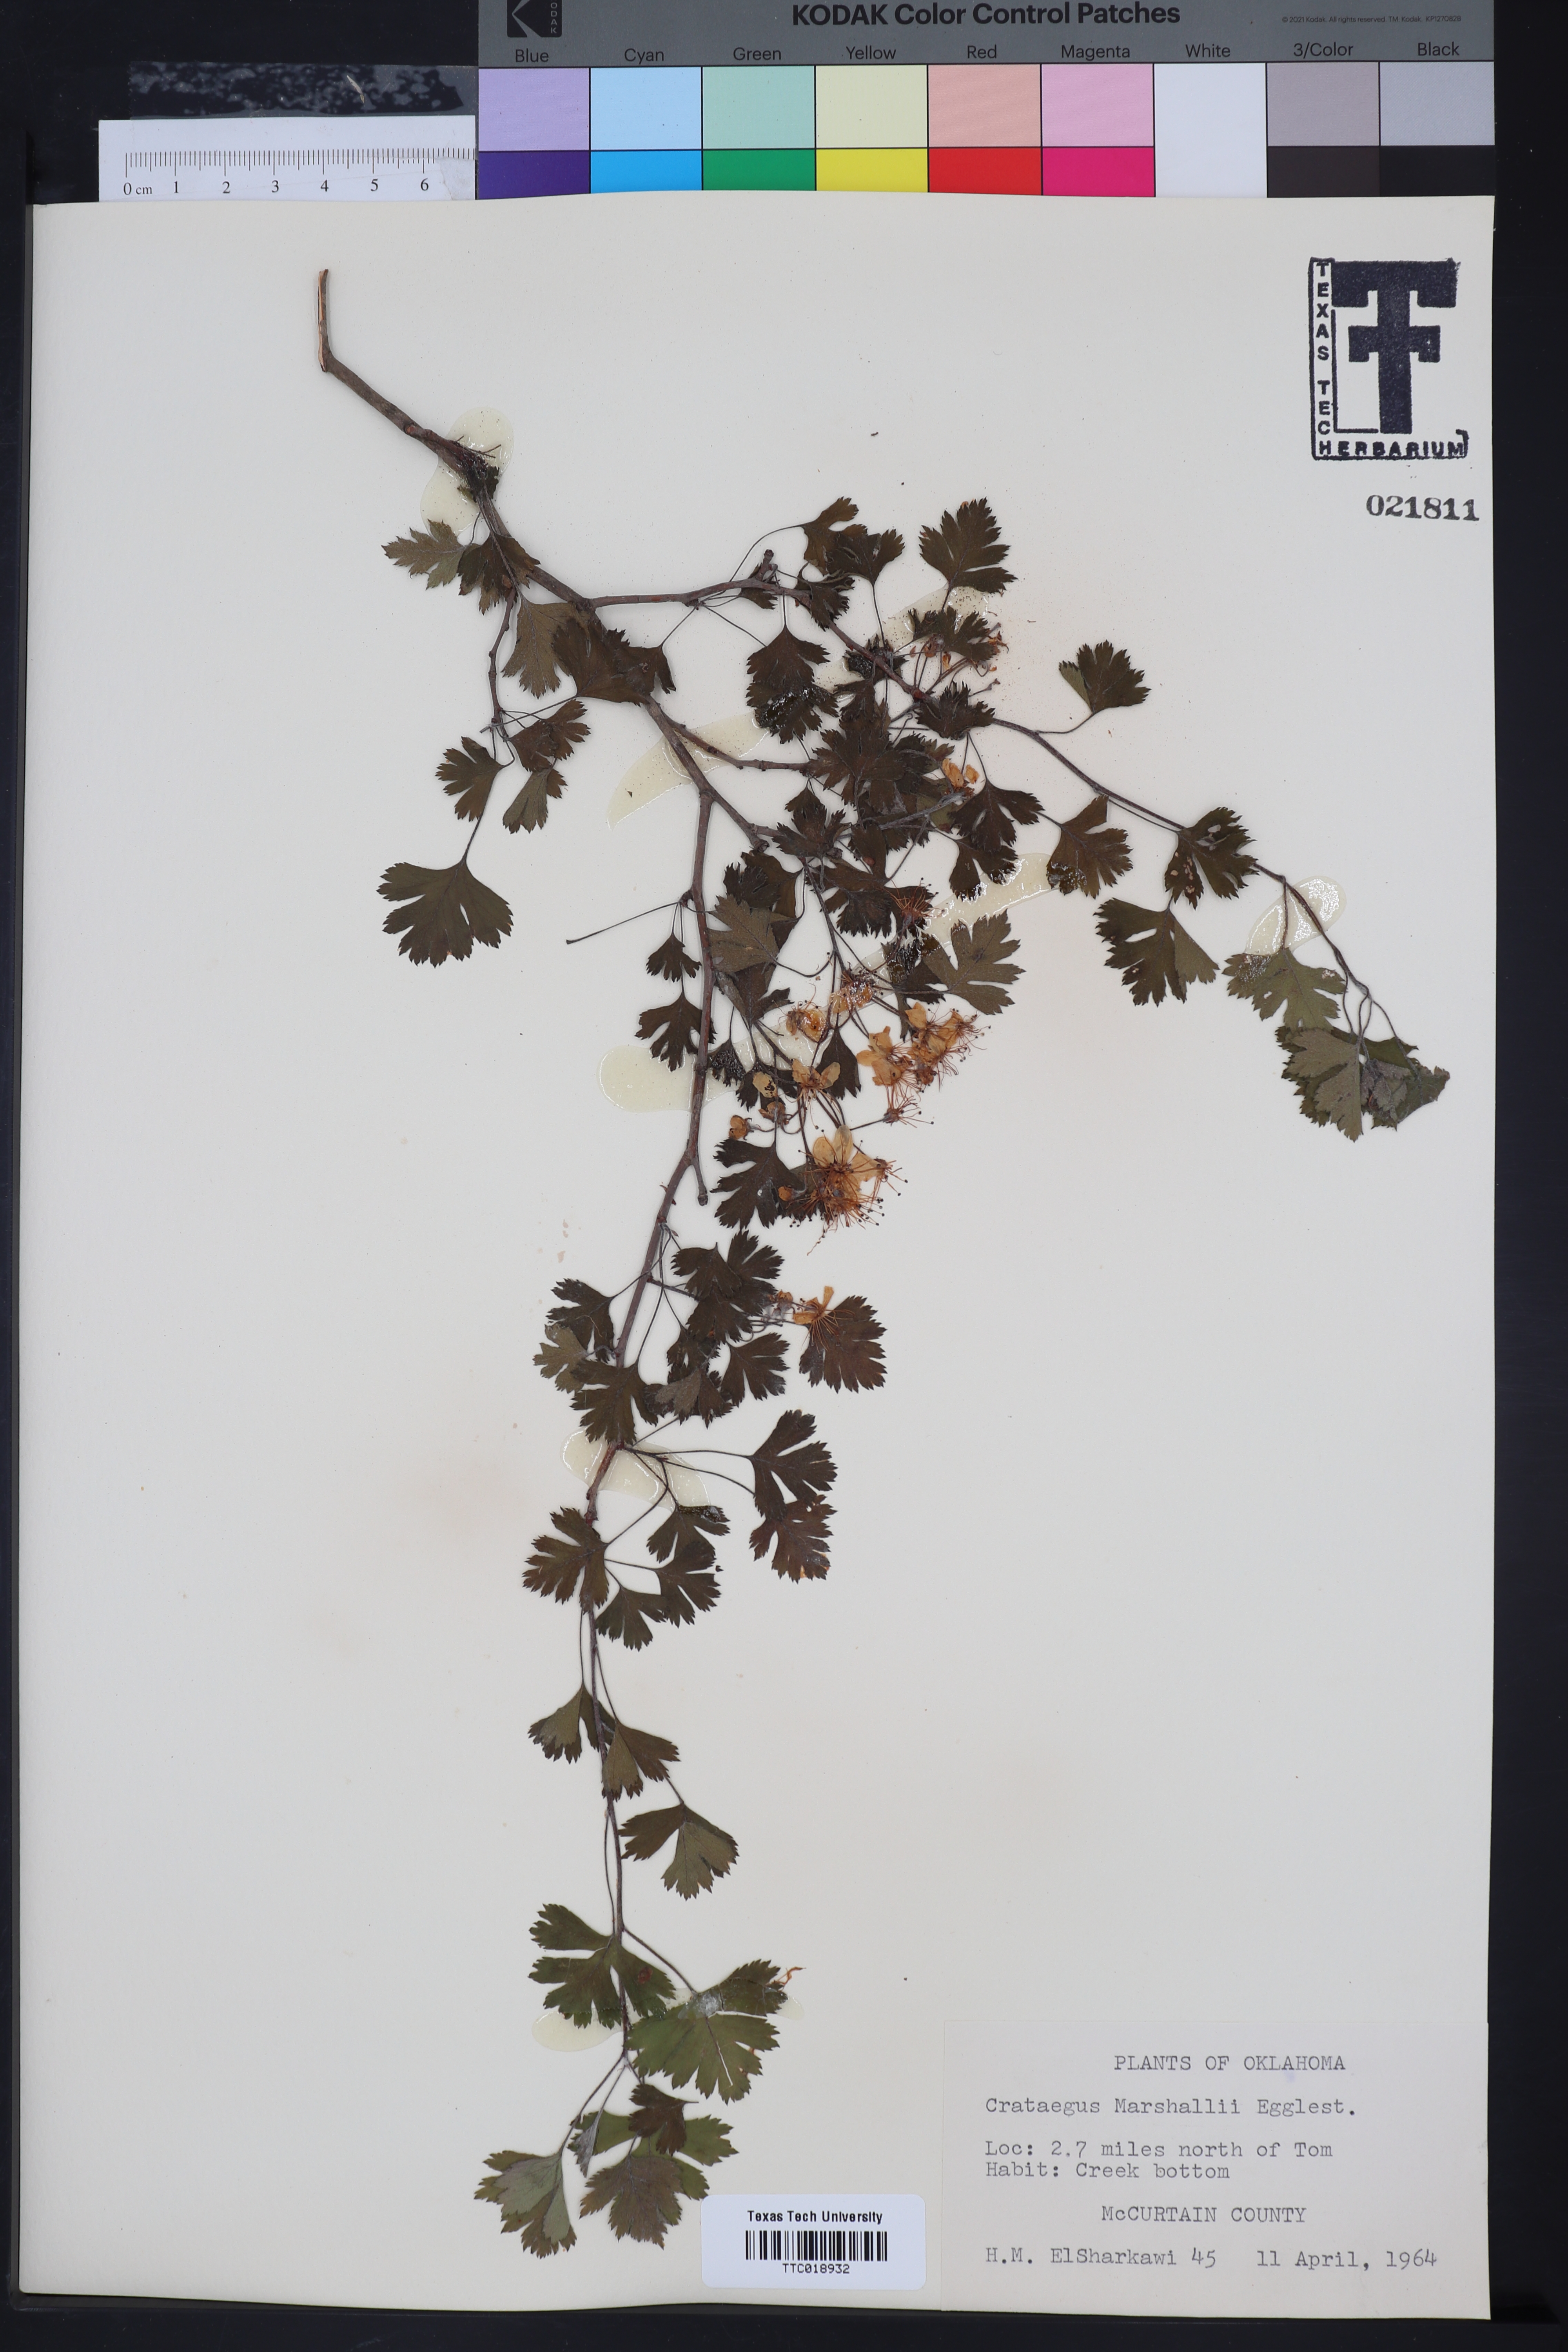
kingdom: Plantae
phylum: Tracheophyta
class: Magnoliopsida
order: Rosales
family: Rosaceae
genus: Crataegus
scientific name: Crataegus marshallii
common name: Parsley-hawthorn
